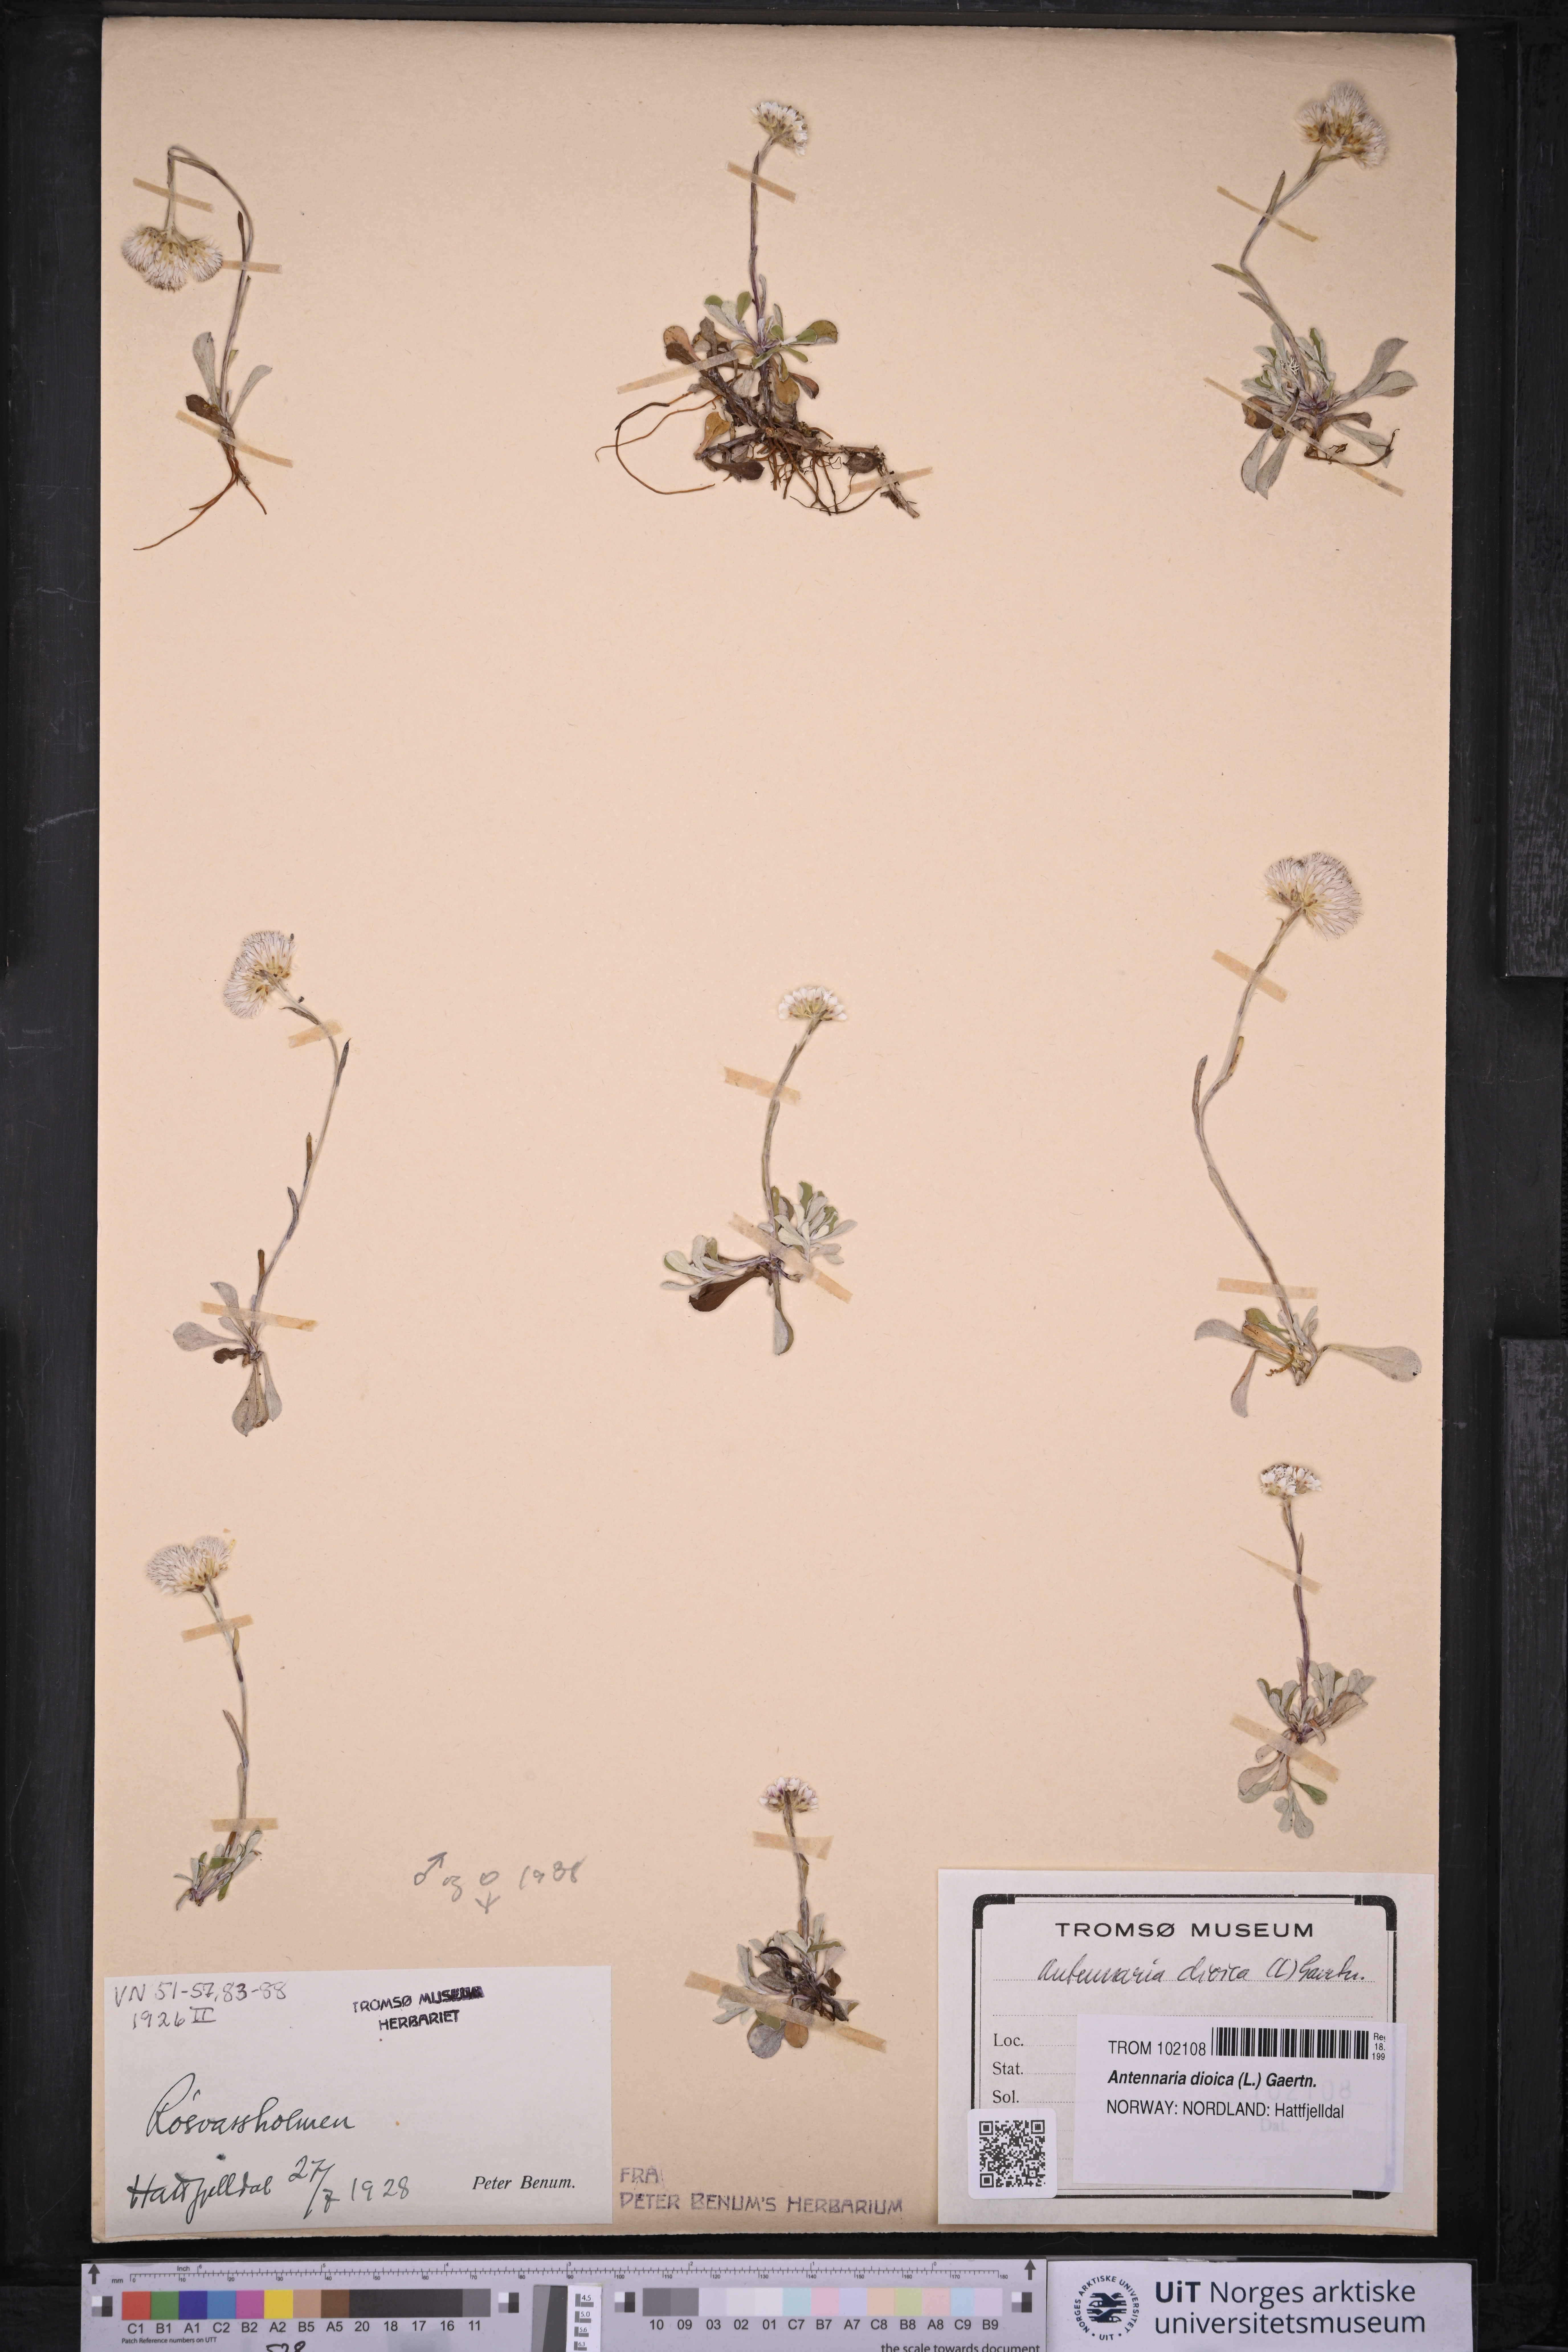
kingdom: Plantae
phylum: Tracheophyta
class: Magnoliopsida
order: Asterales
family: Asteraceae
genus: Antennaria
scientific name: Antennaria dioica
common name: Mountain everlasting
